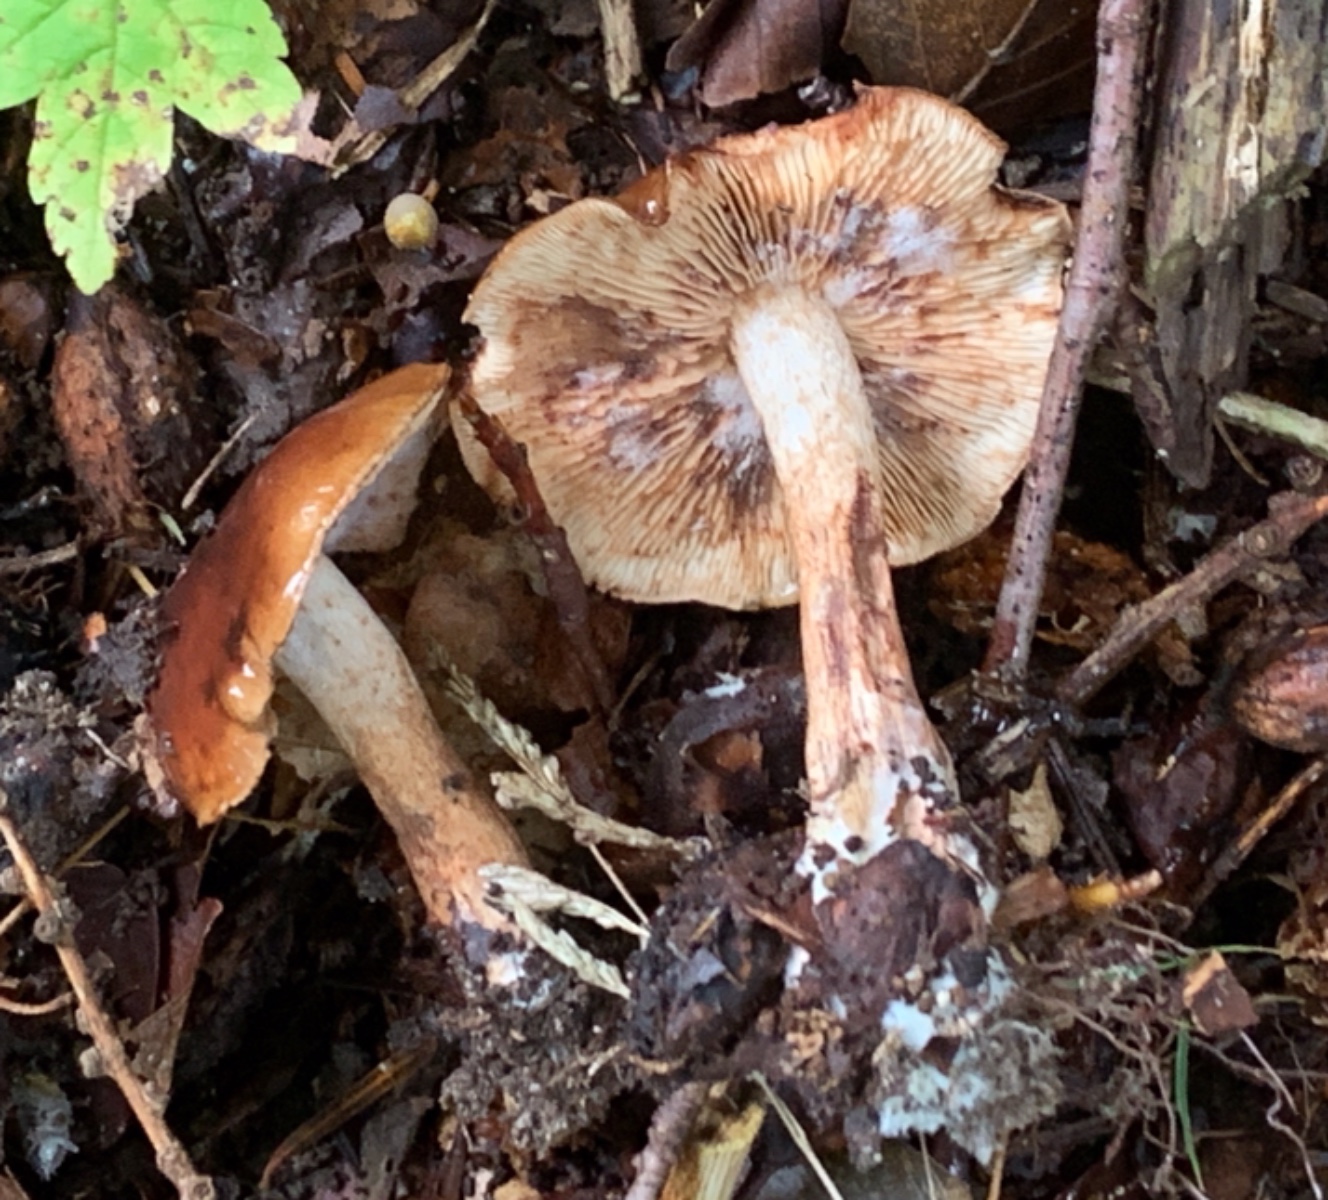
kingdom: Fungi
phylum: Basidiomycota
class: Agaricomycetes
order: Agaricales
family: Tricholomataceae
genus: Tricholoma
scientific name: Tricholoma ustale
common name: sveden ridderhat
